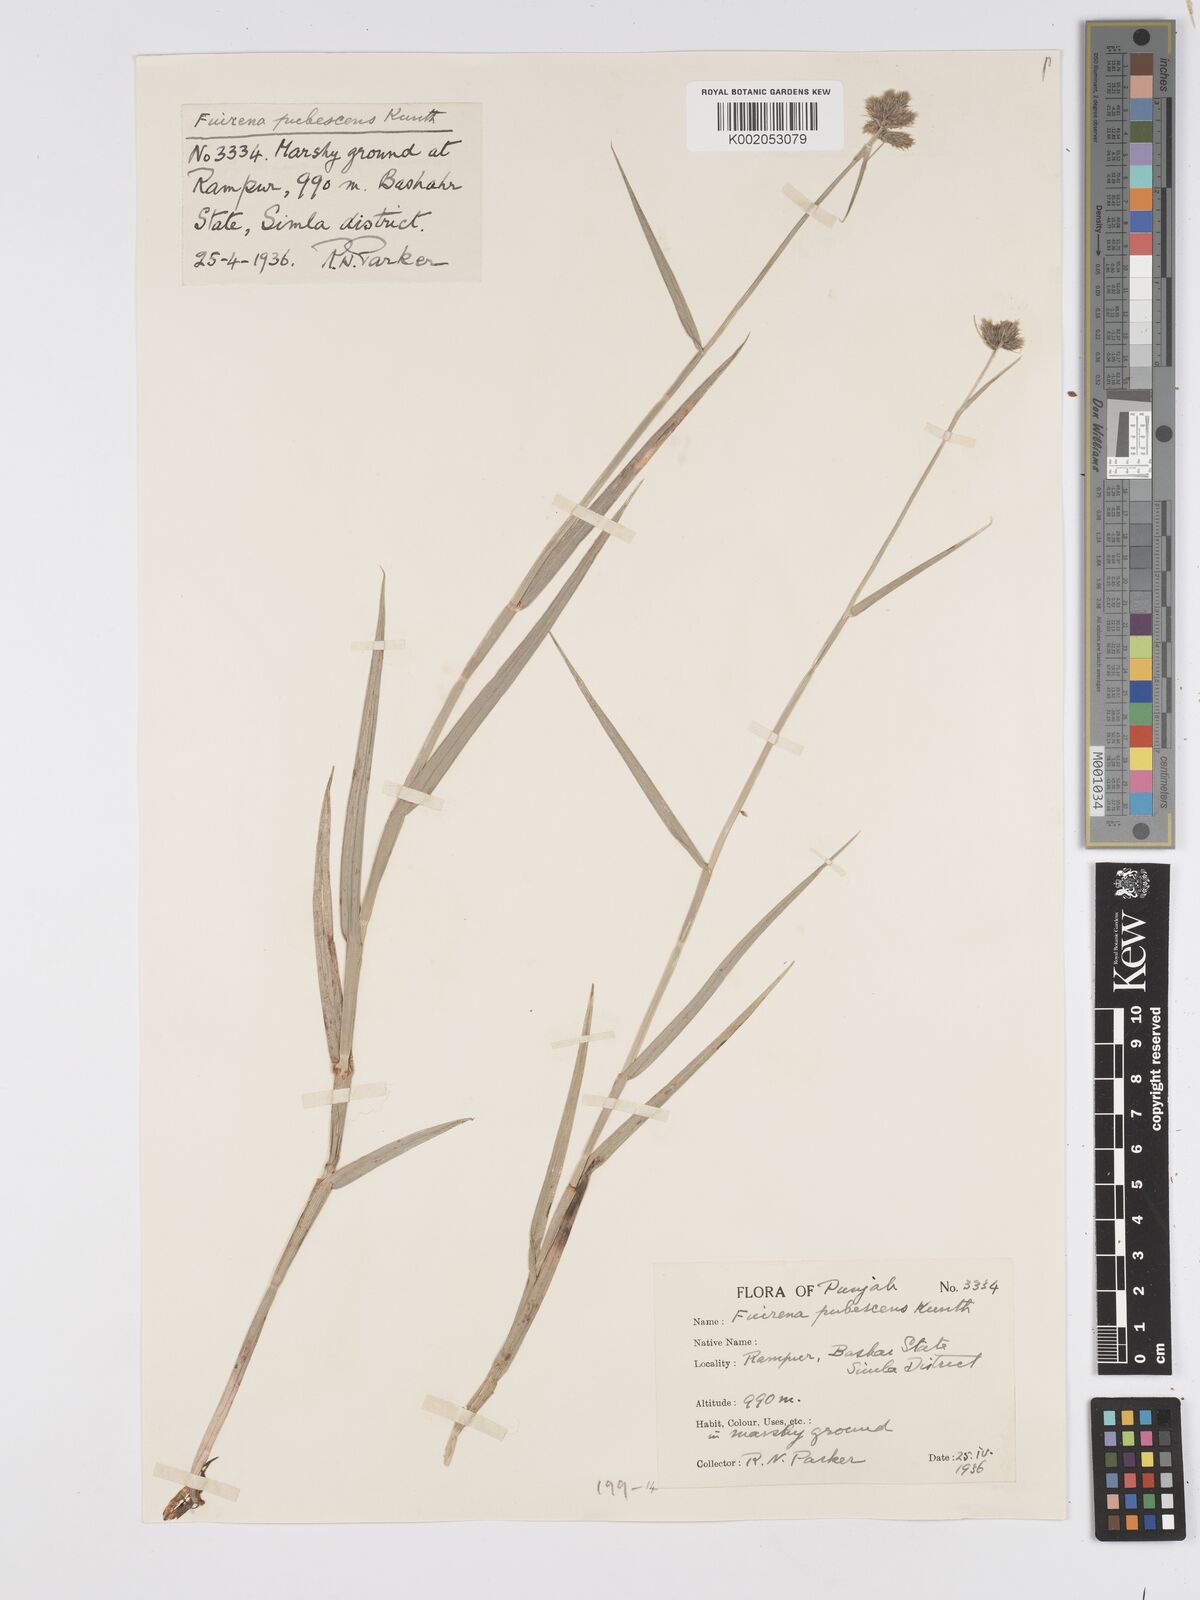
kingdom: Plantae
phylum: Tracheophyta
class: Liliopsida
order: Poales
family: Cyperaceae
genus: Fuirena
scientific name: Fuirena pubescens
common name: Hairy sedge
